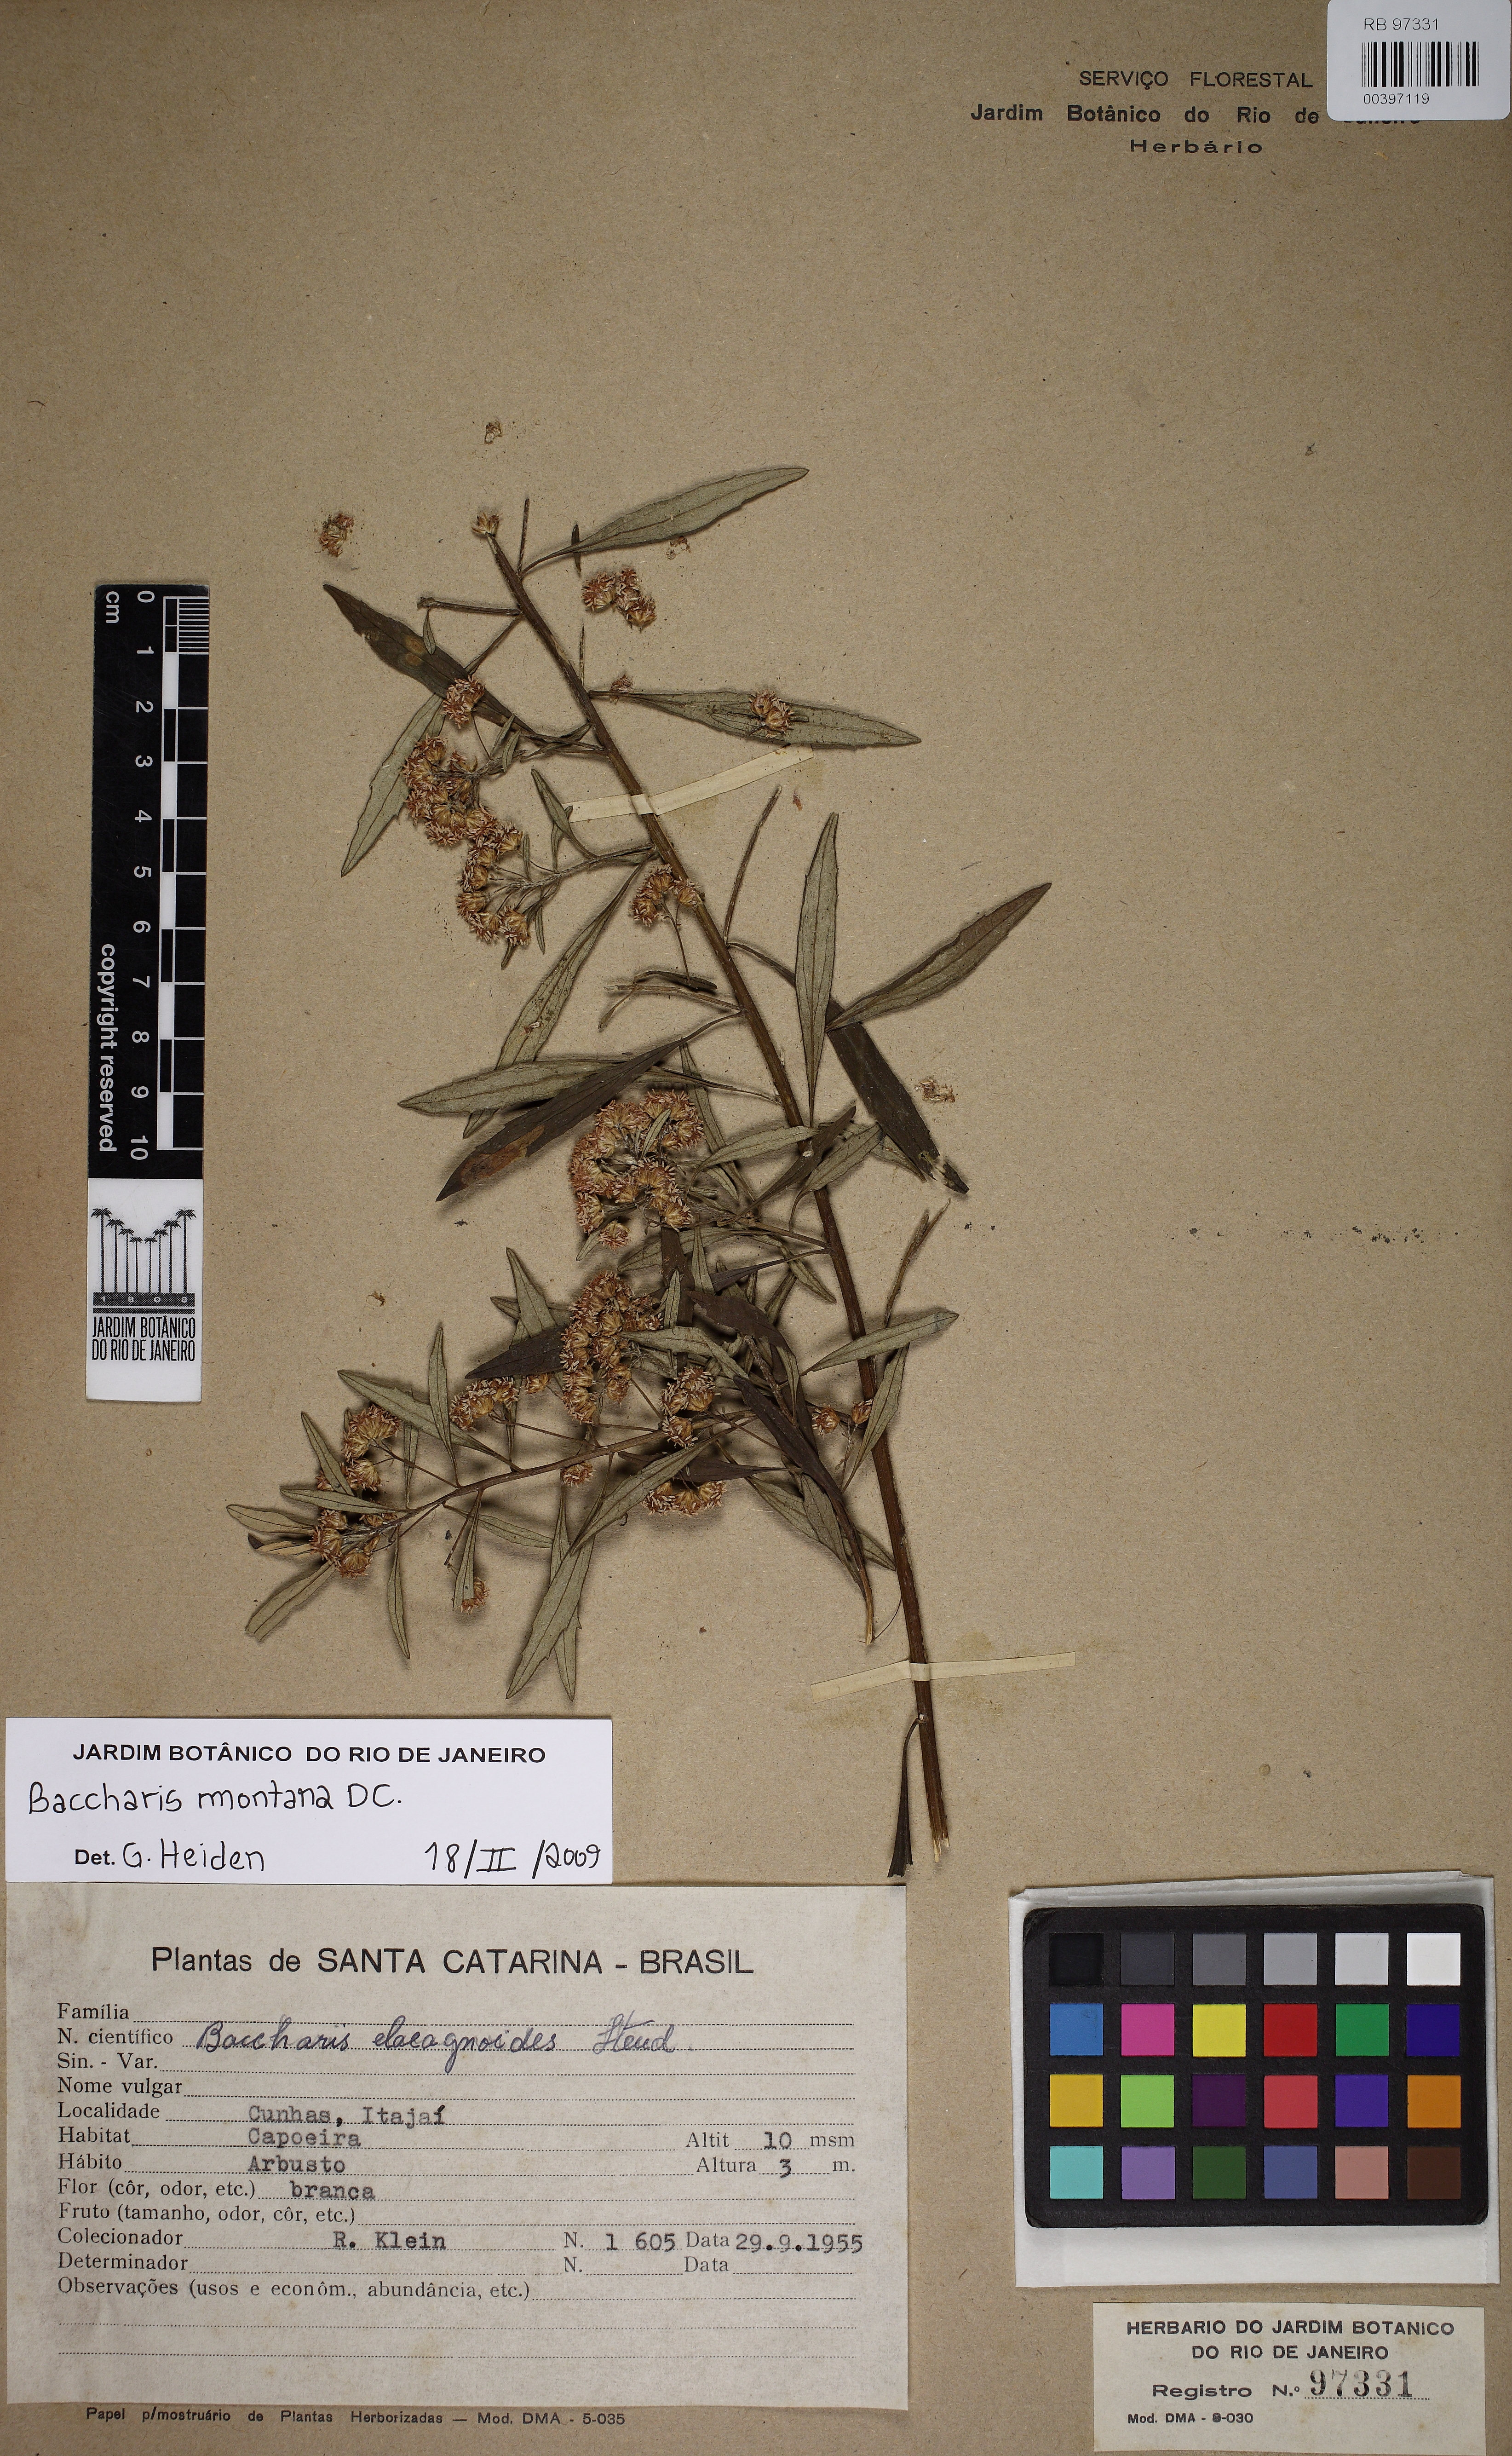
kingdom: Plantae
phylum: Tracheophyta
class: Magnoliopsida
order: Asterales
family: Asteraceae
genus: Baccharis
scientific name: Baccharis montana
